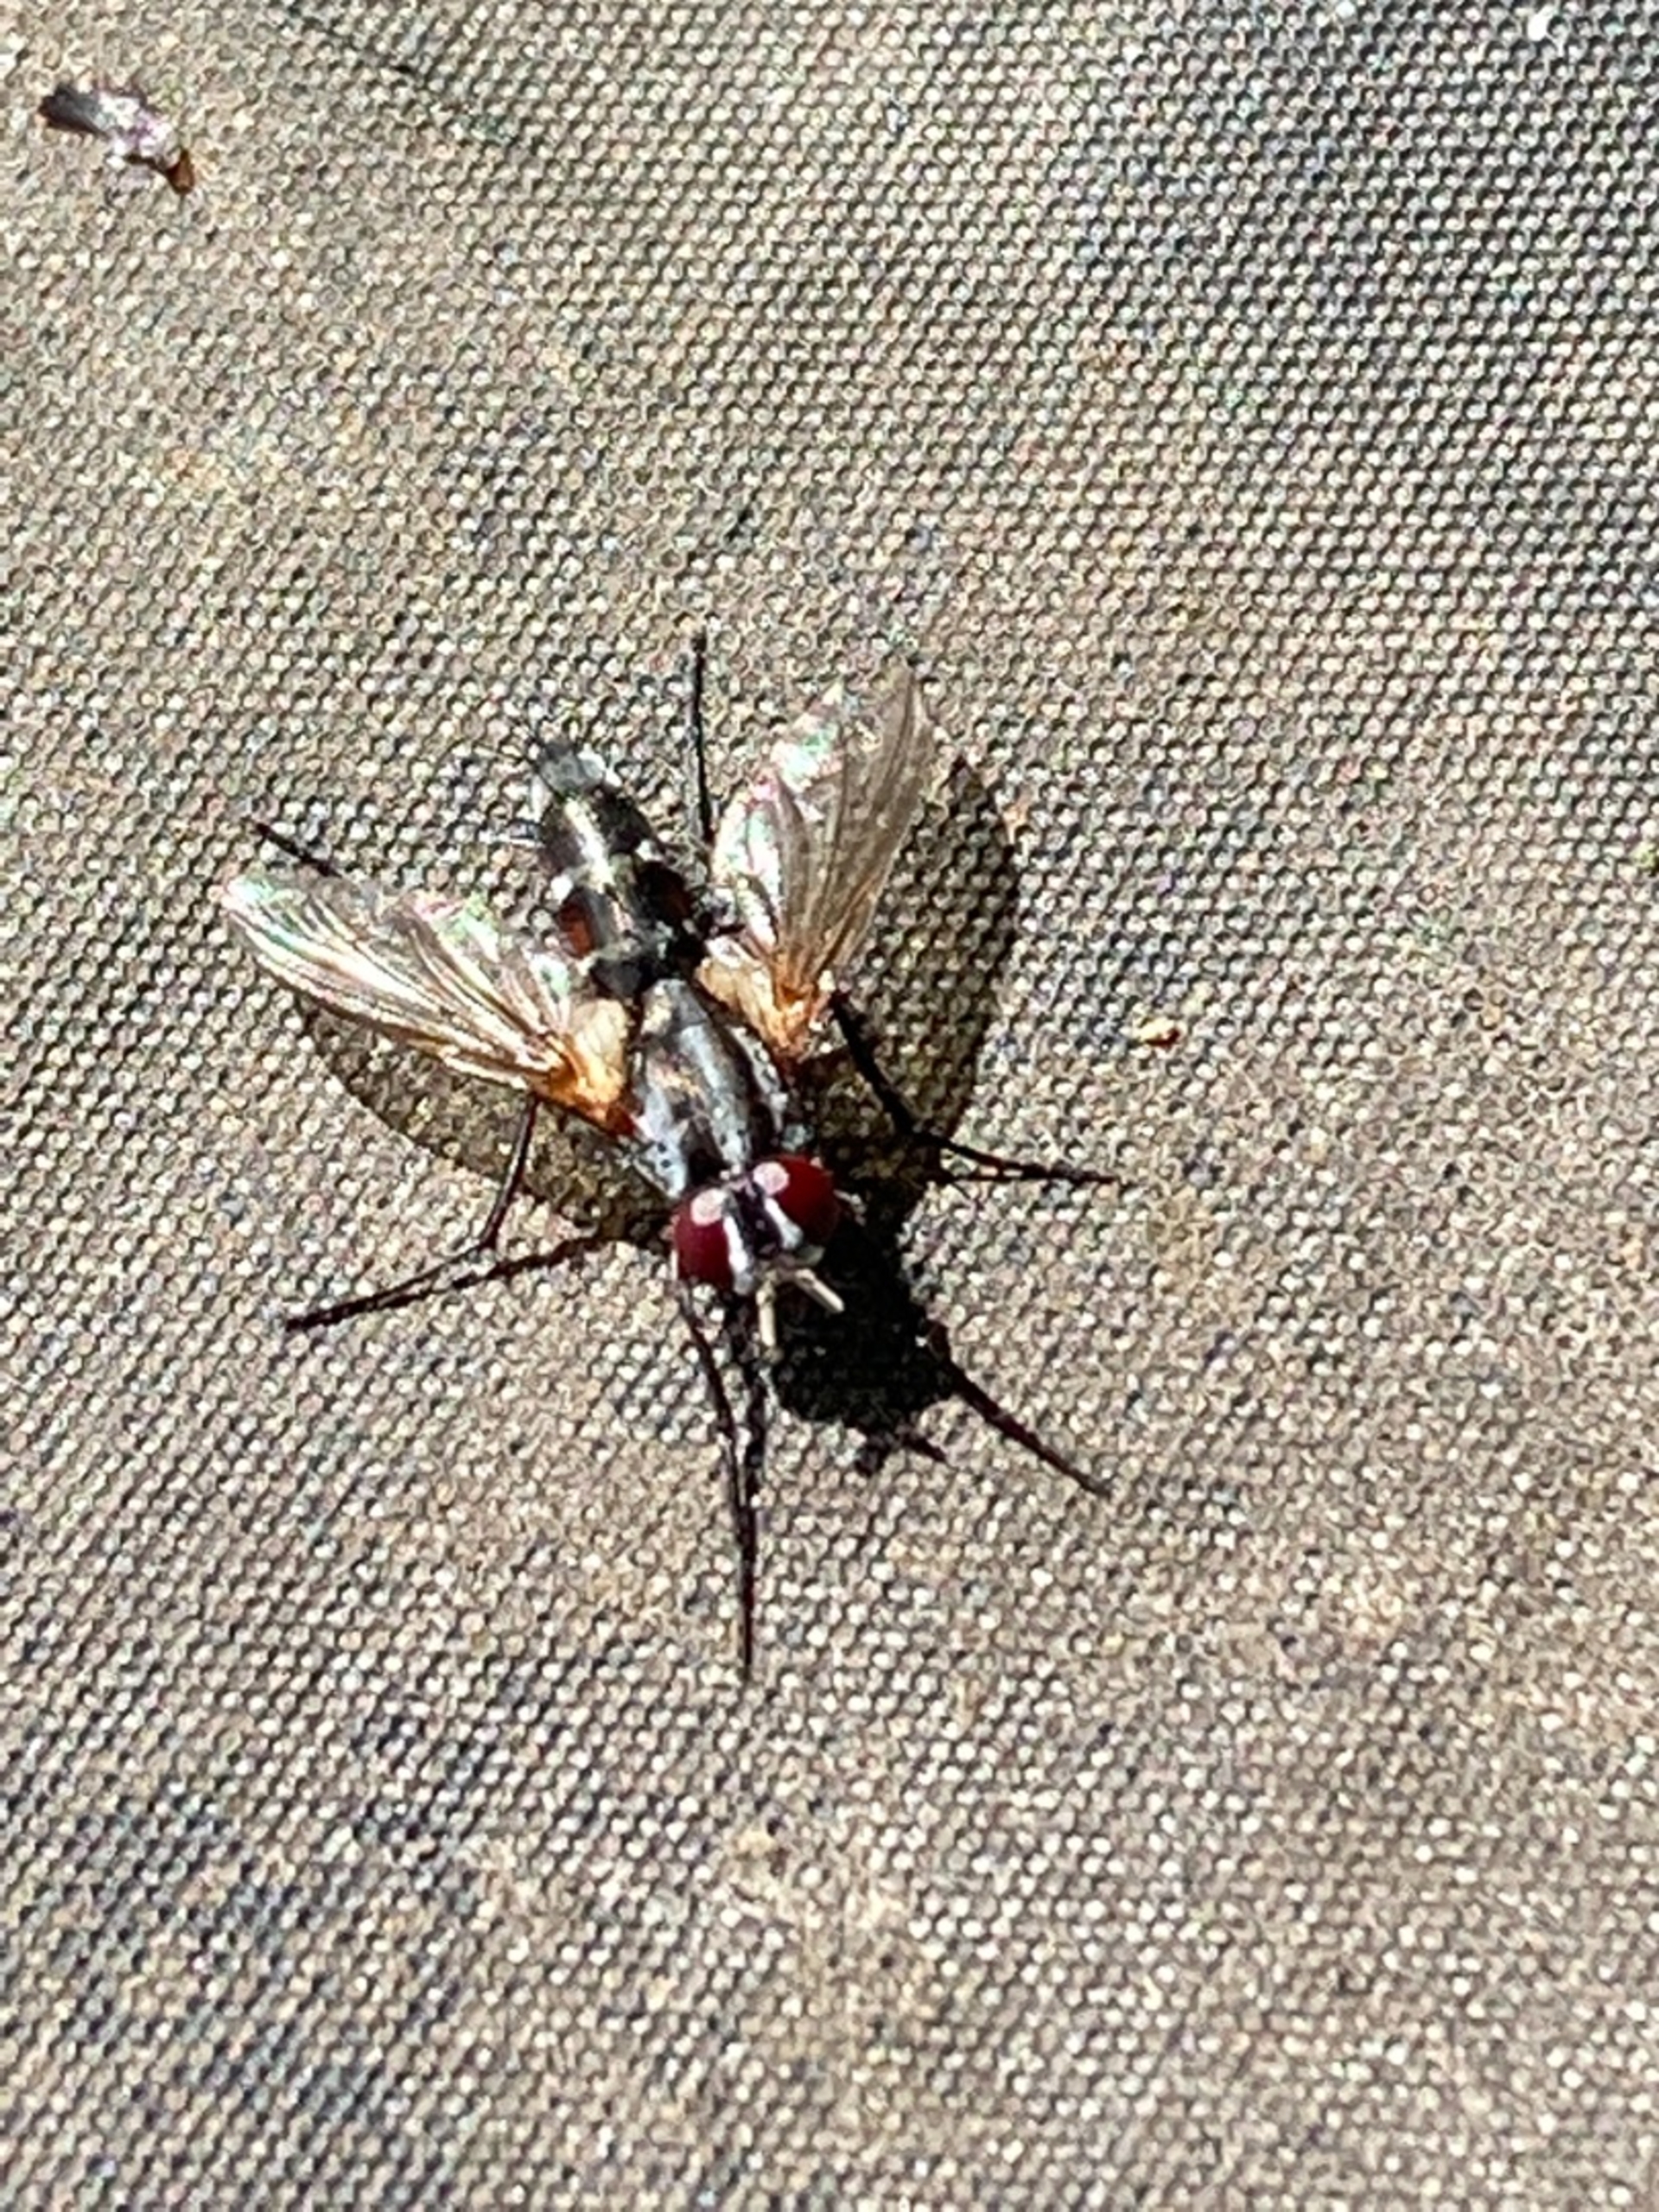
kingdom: Animalia
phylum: Arthropoda
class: Insecta
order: Diptera
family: Tachinidae
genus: Mintho
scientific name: Mintho rufiventris
